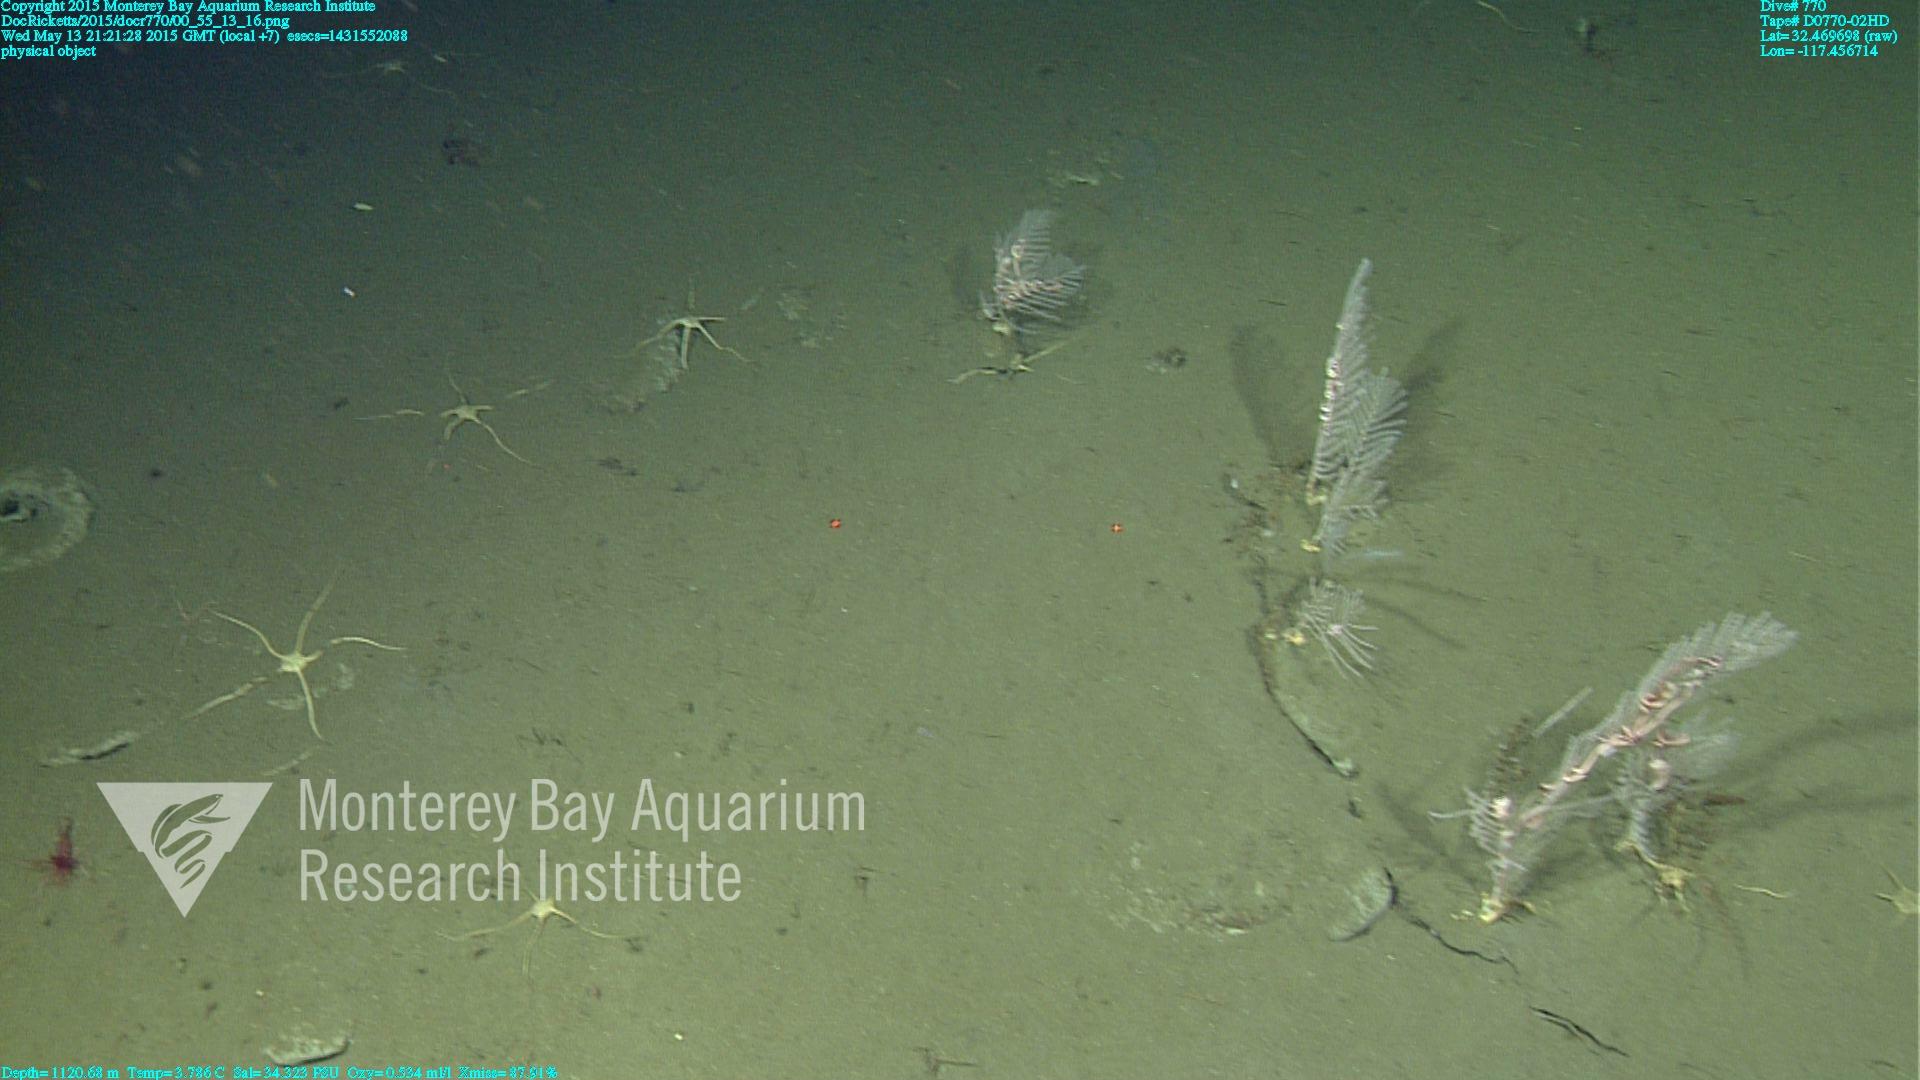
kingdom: Animalia
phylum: Cnidaria
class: Anthozoa
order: Scleralcyonacea
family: Primnoidae
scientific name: Primnoidae
